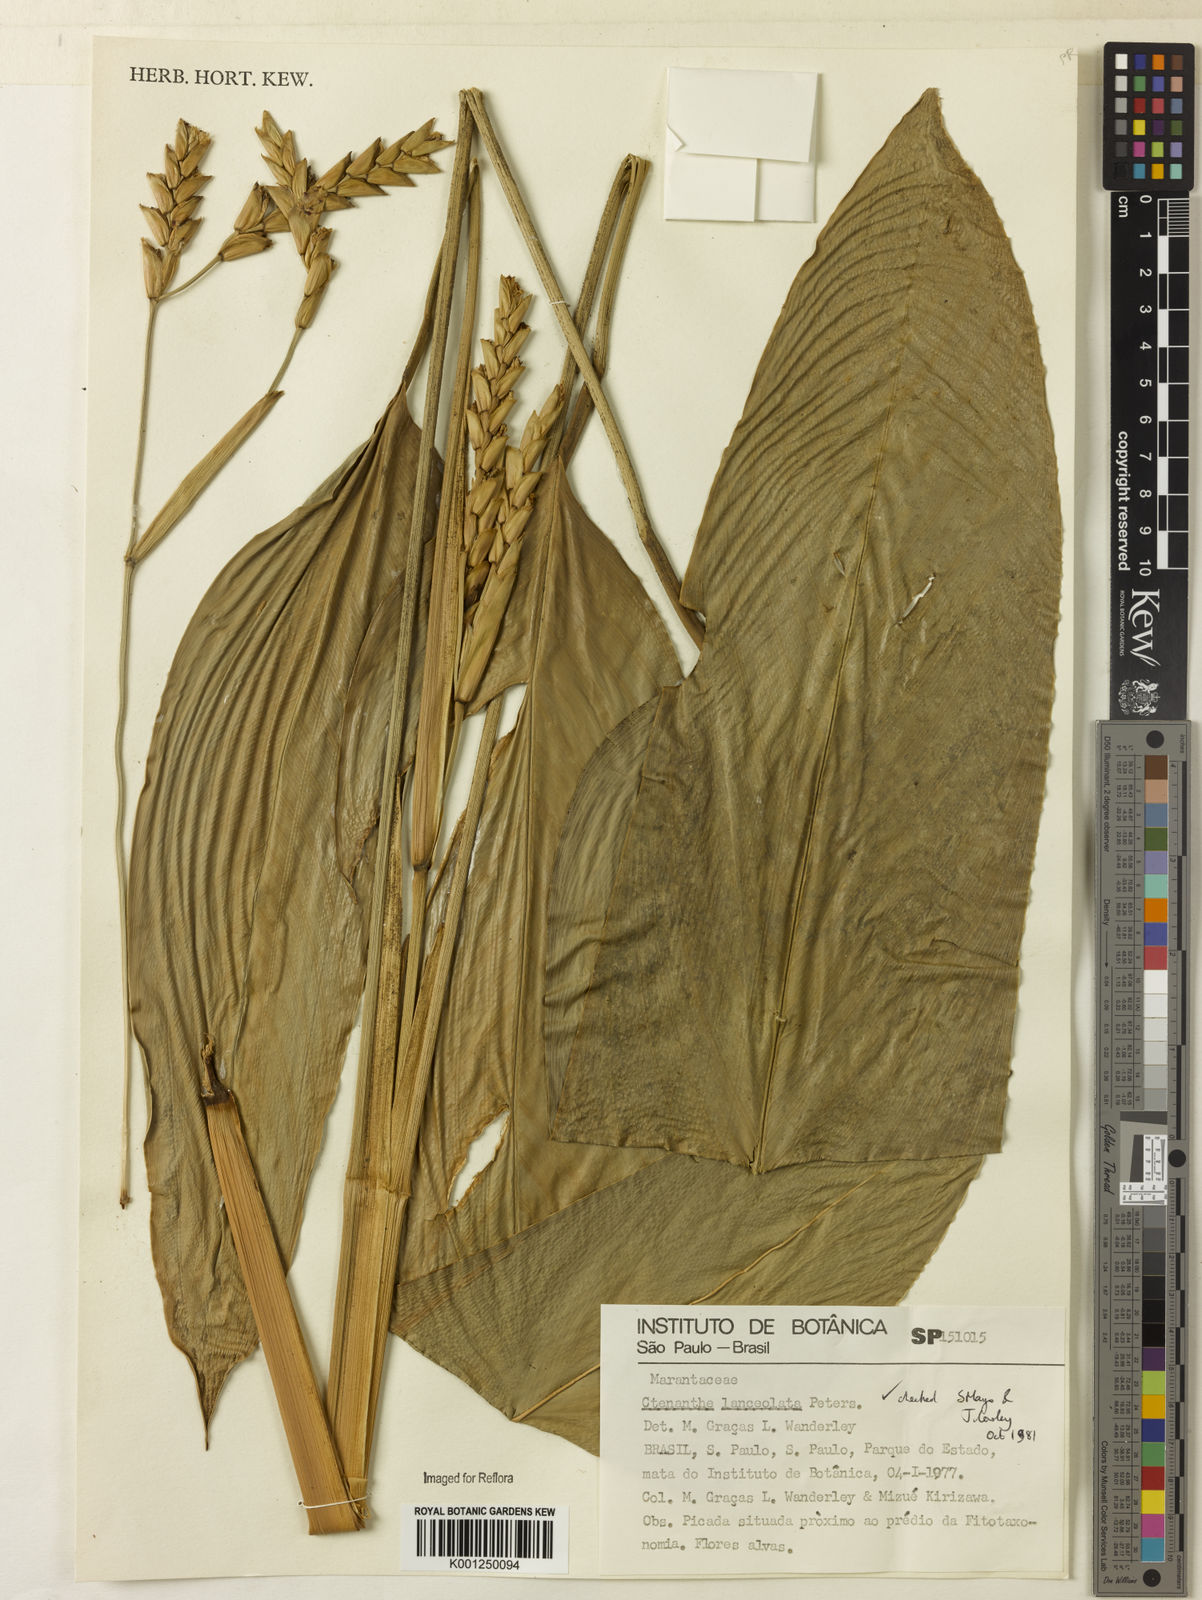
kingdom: Plantae
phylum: Tracheophyta
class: Liliopsida
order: Zingiberales
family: Marantaceae
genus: Ctenanthe
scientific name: Ctenanthe lanceolata
